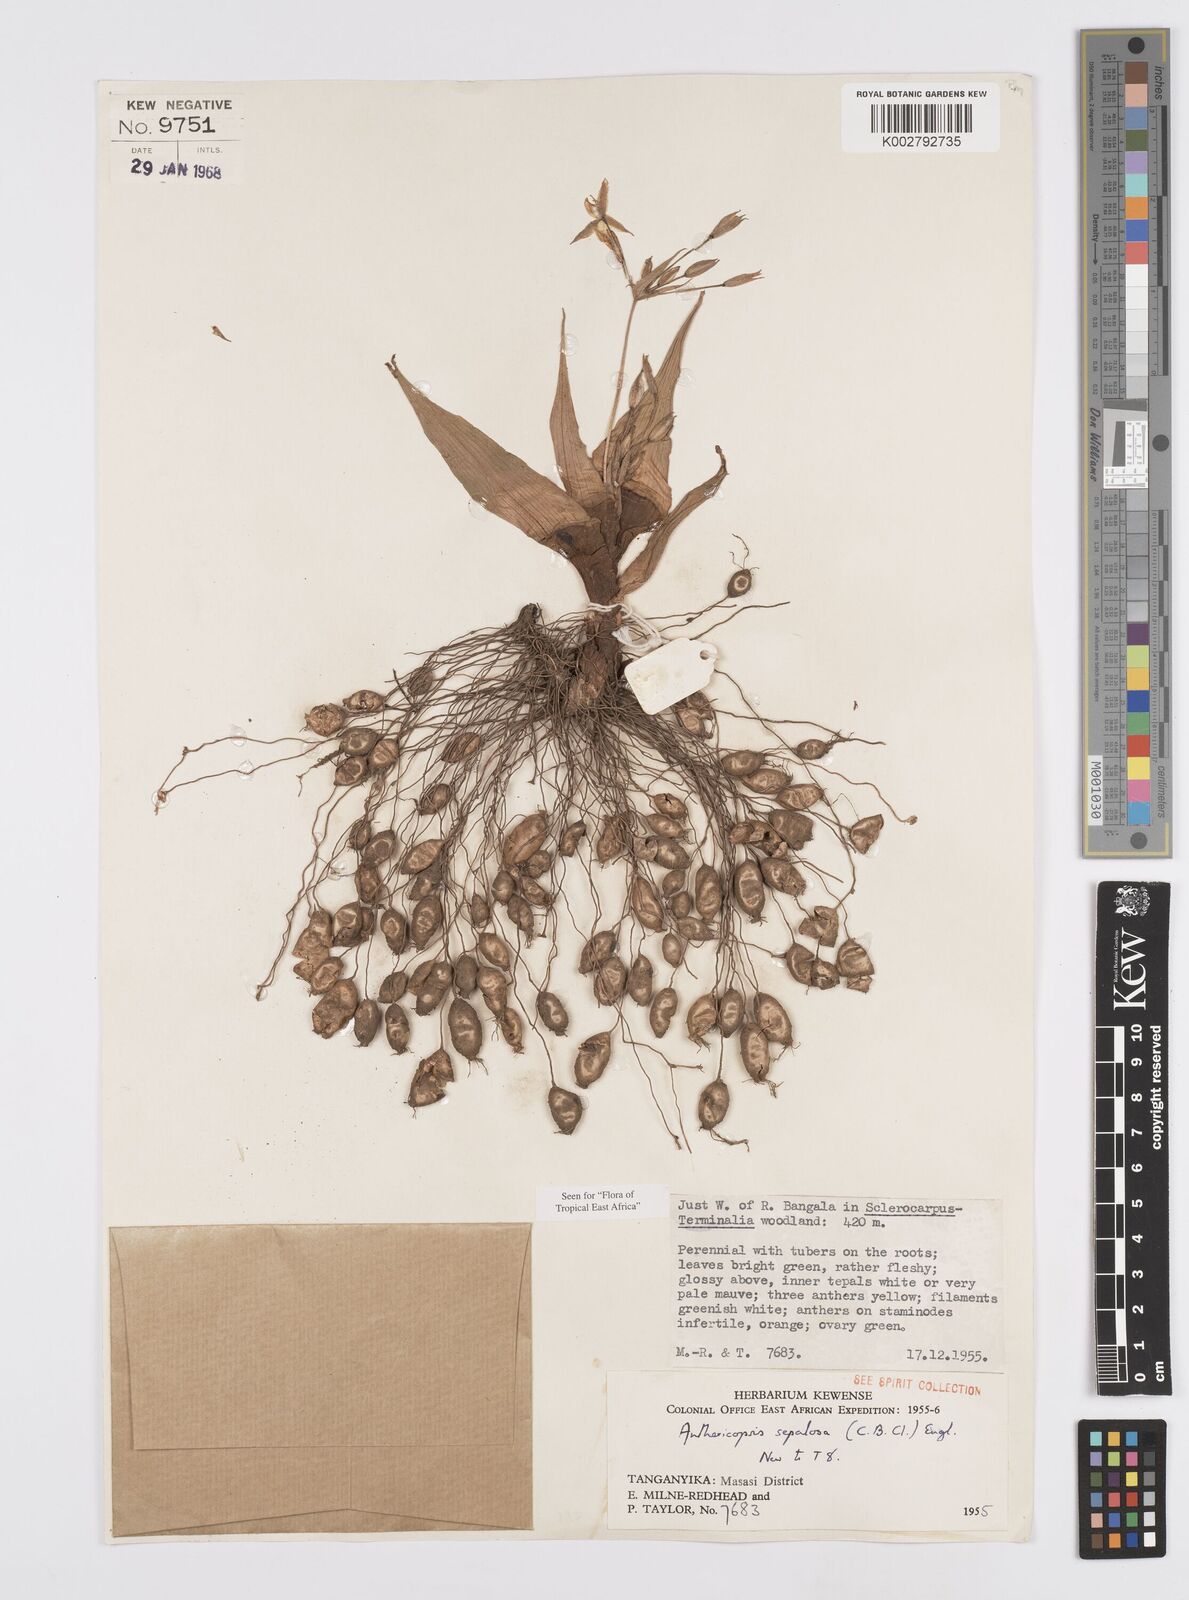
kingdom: Plantae
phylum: Tracheophyta
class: Liliopsida
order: Commelinales
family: Commelinaceae
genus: Anthericopsis
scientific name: Anthericopsis sepalosa
